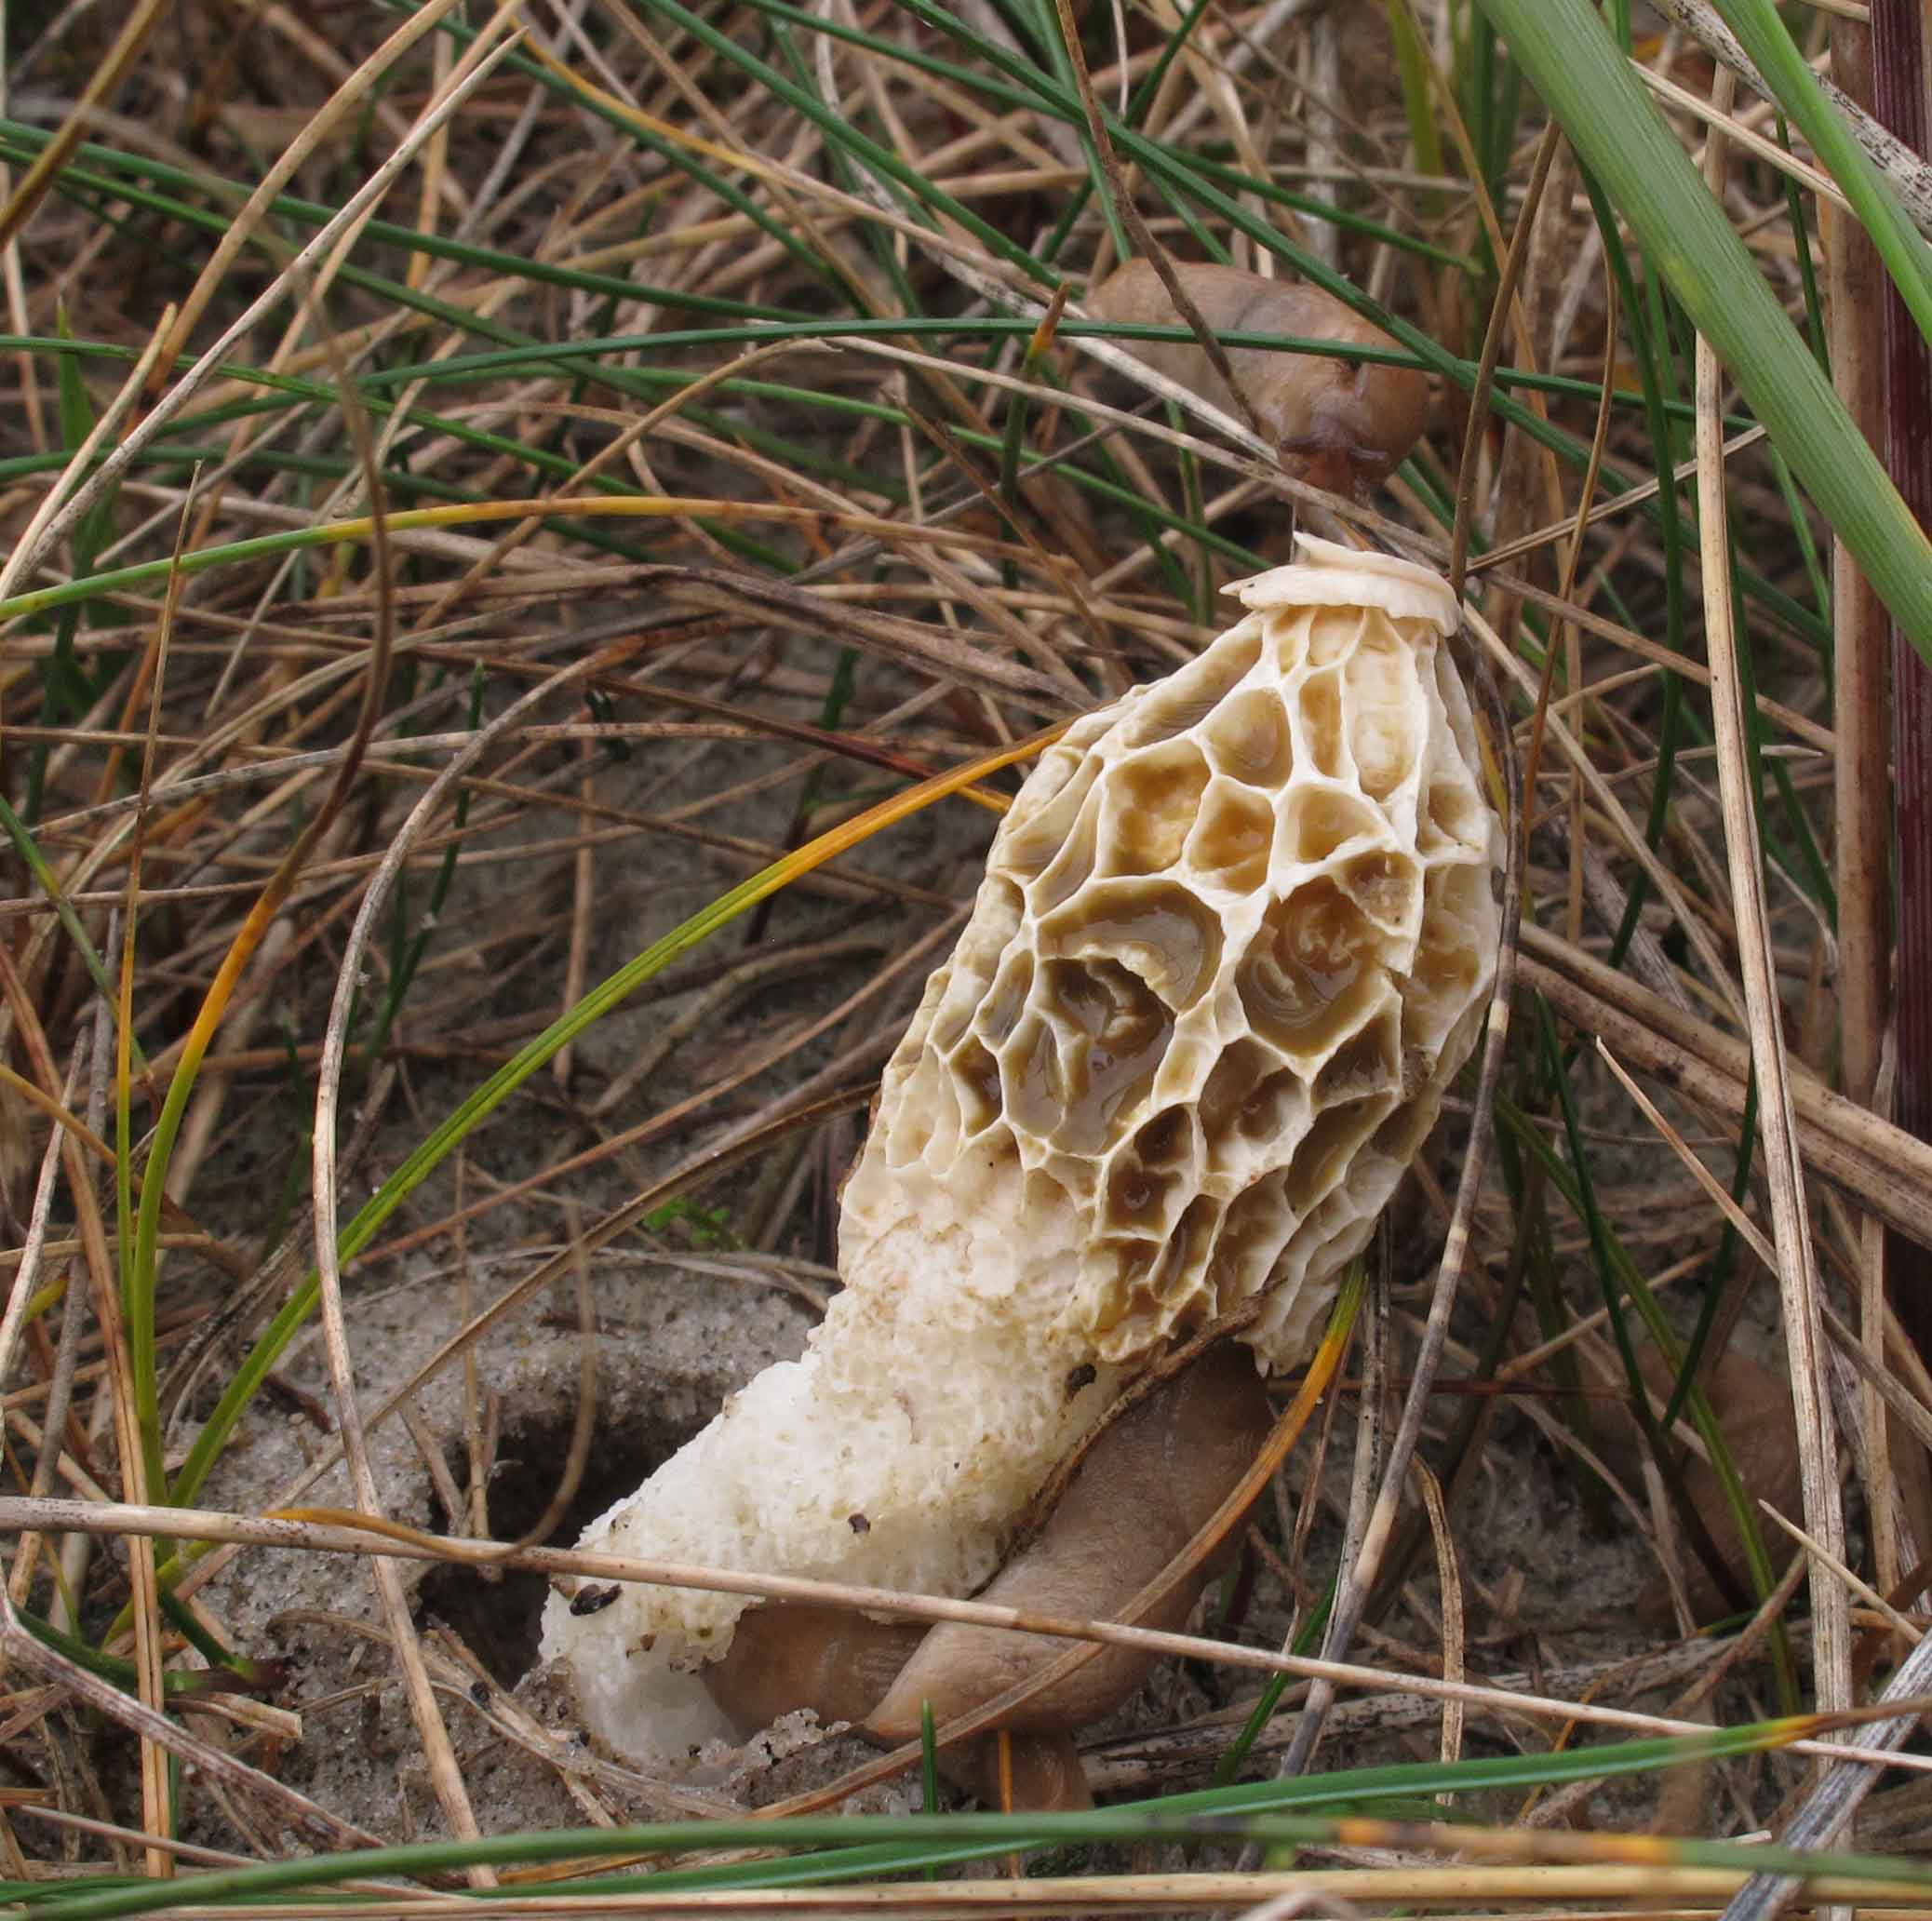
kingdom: Fungi
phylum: Basidiomycota
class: Agaricomycetes
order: Phallales
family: Phallaceae
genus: Phallus
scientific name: Phallus hadriani
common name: sand-stinksvamp
